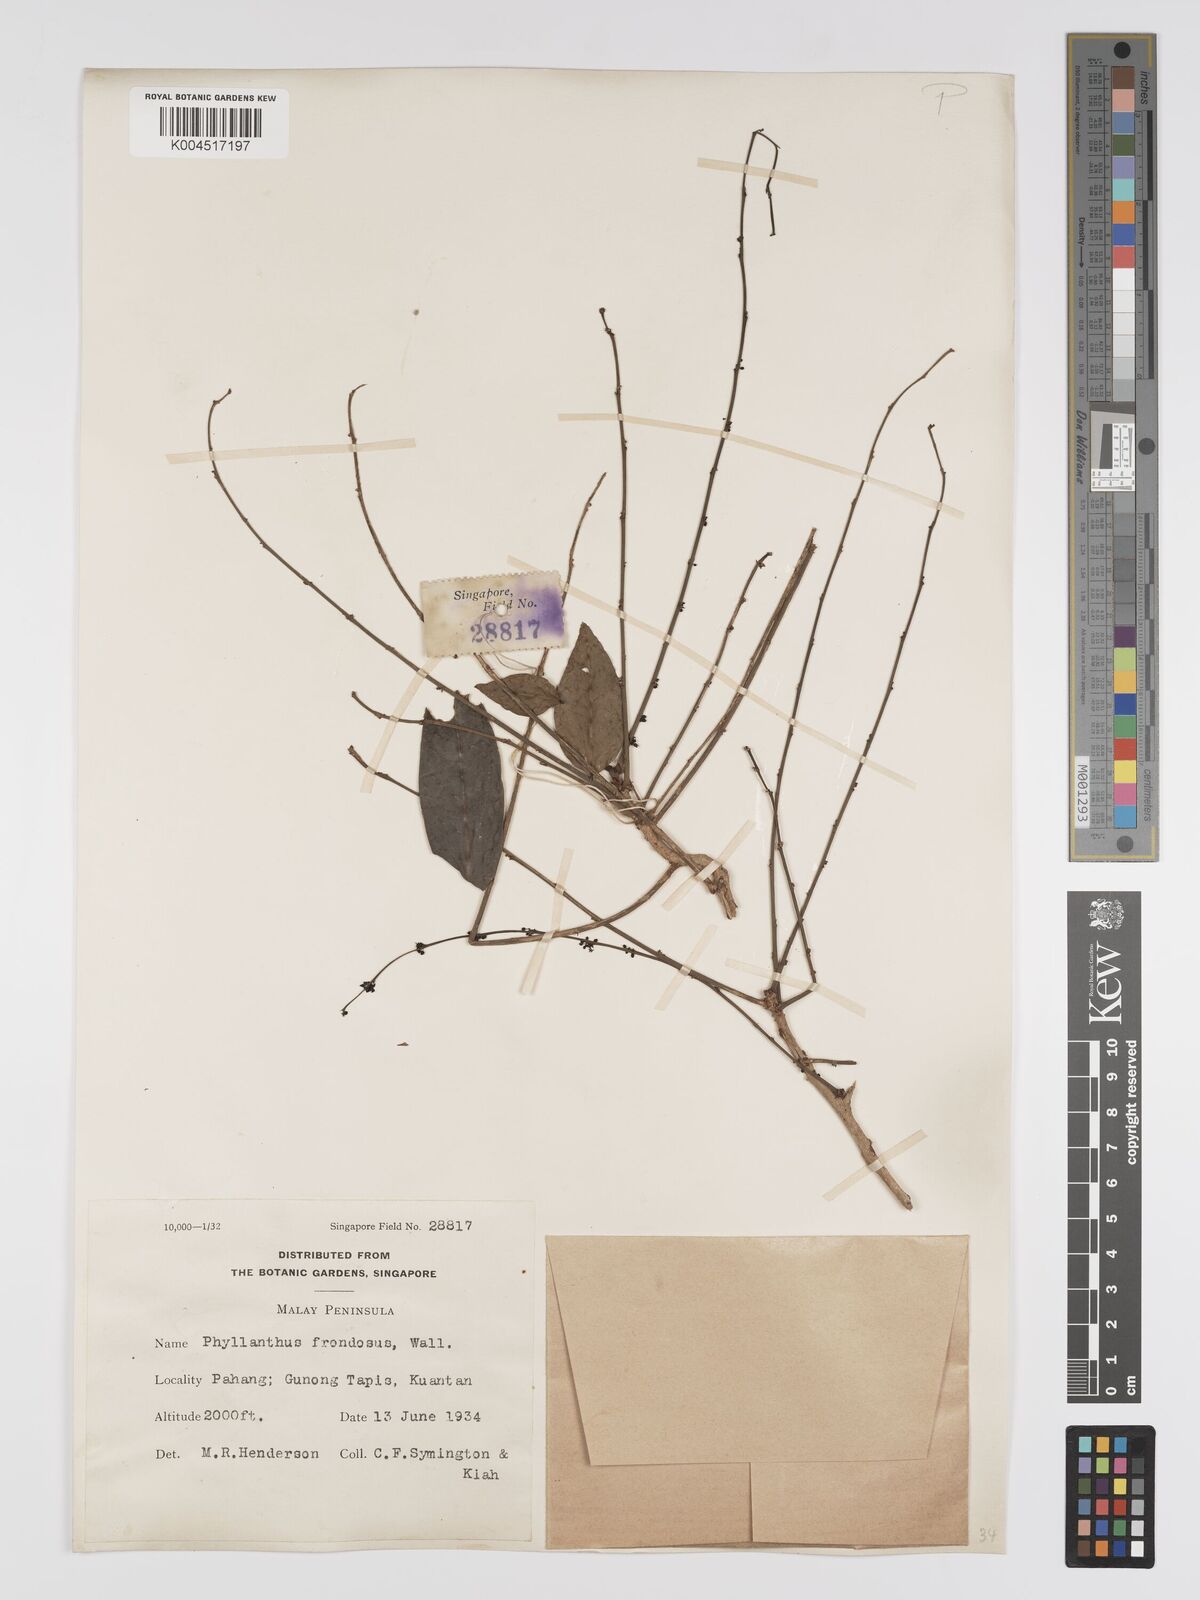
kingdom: Plantae
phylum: Tracheophyta
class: Magnoliopsida
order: Malpighiales
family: Phyllanthaceae
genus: Phyllanthus
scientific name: Phyllanthus
